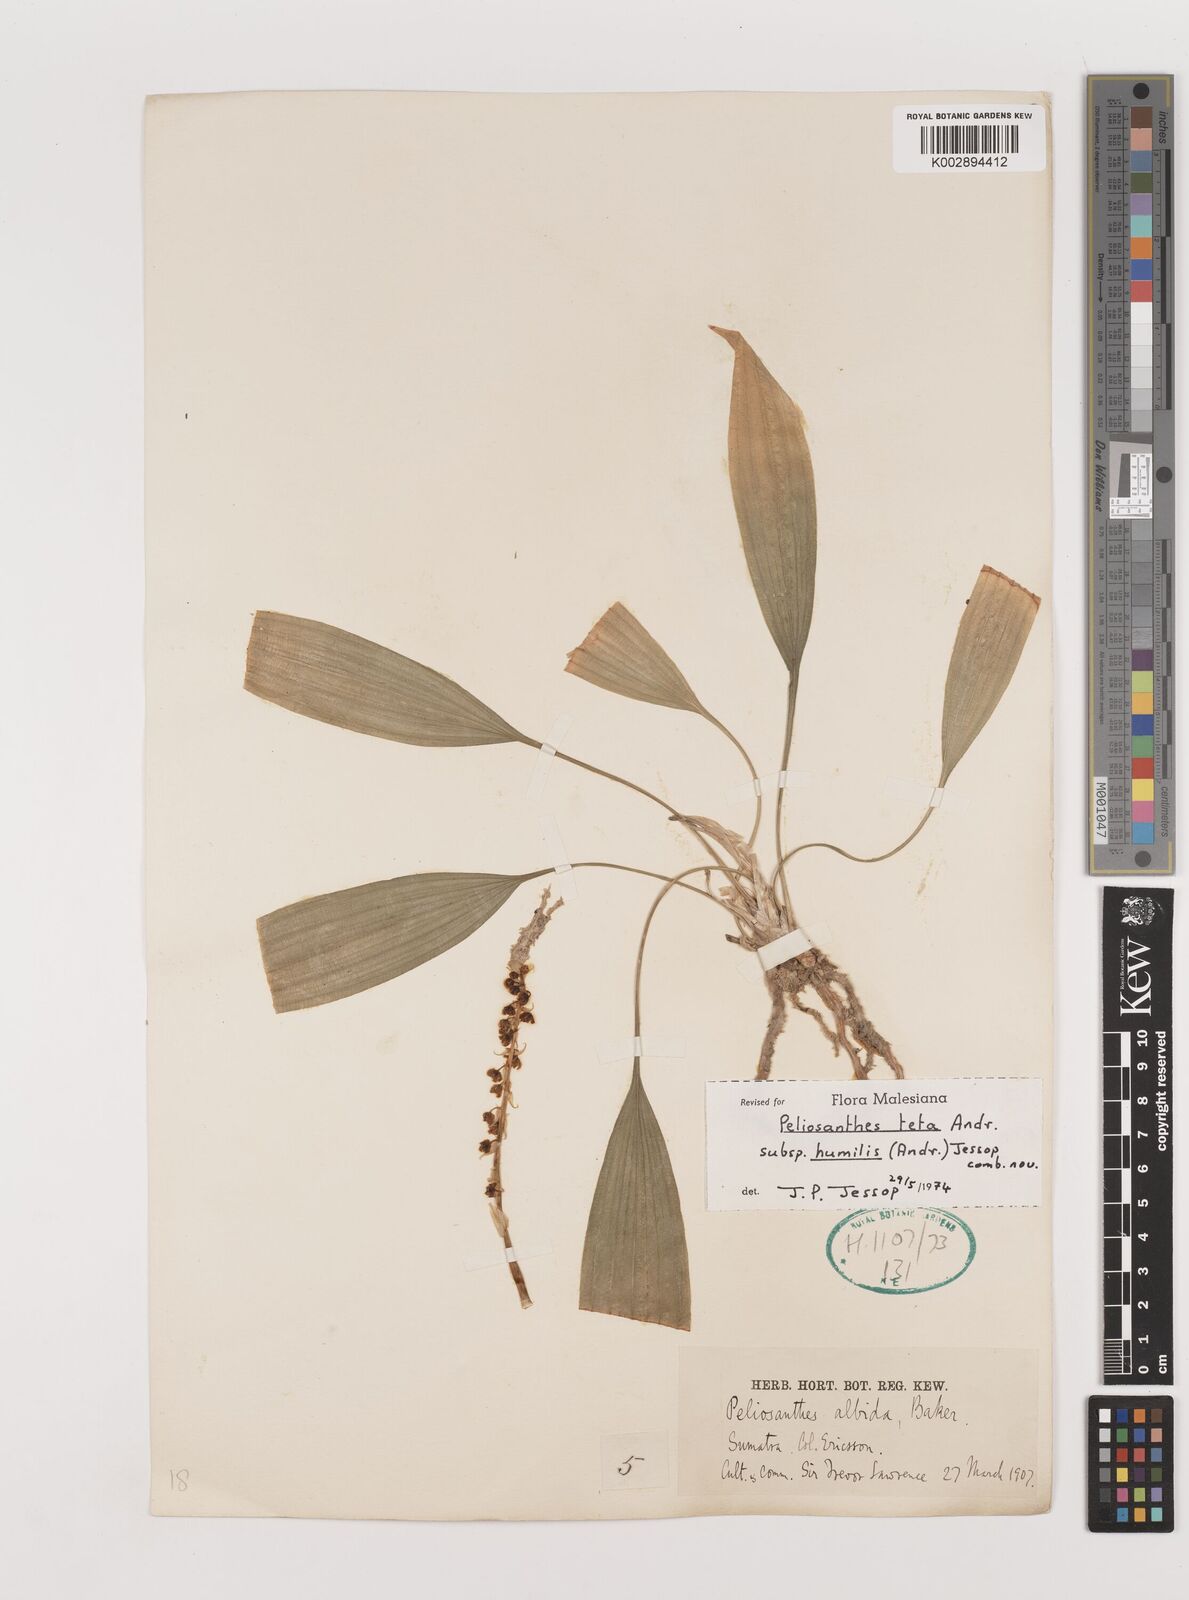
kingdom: Plantae
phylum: Tracheophyta
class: Liliopsida
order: Asparagales
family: Asparagaceae
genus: Peliosanthes
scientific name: Peliosanthes teta
